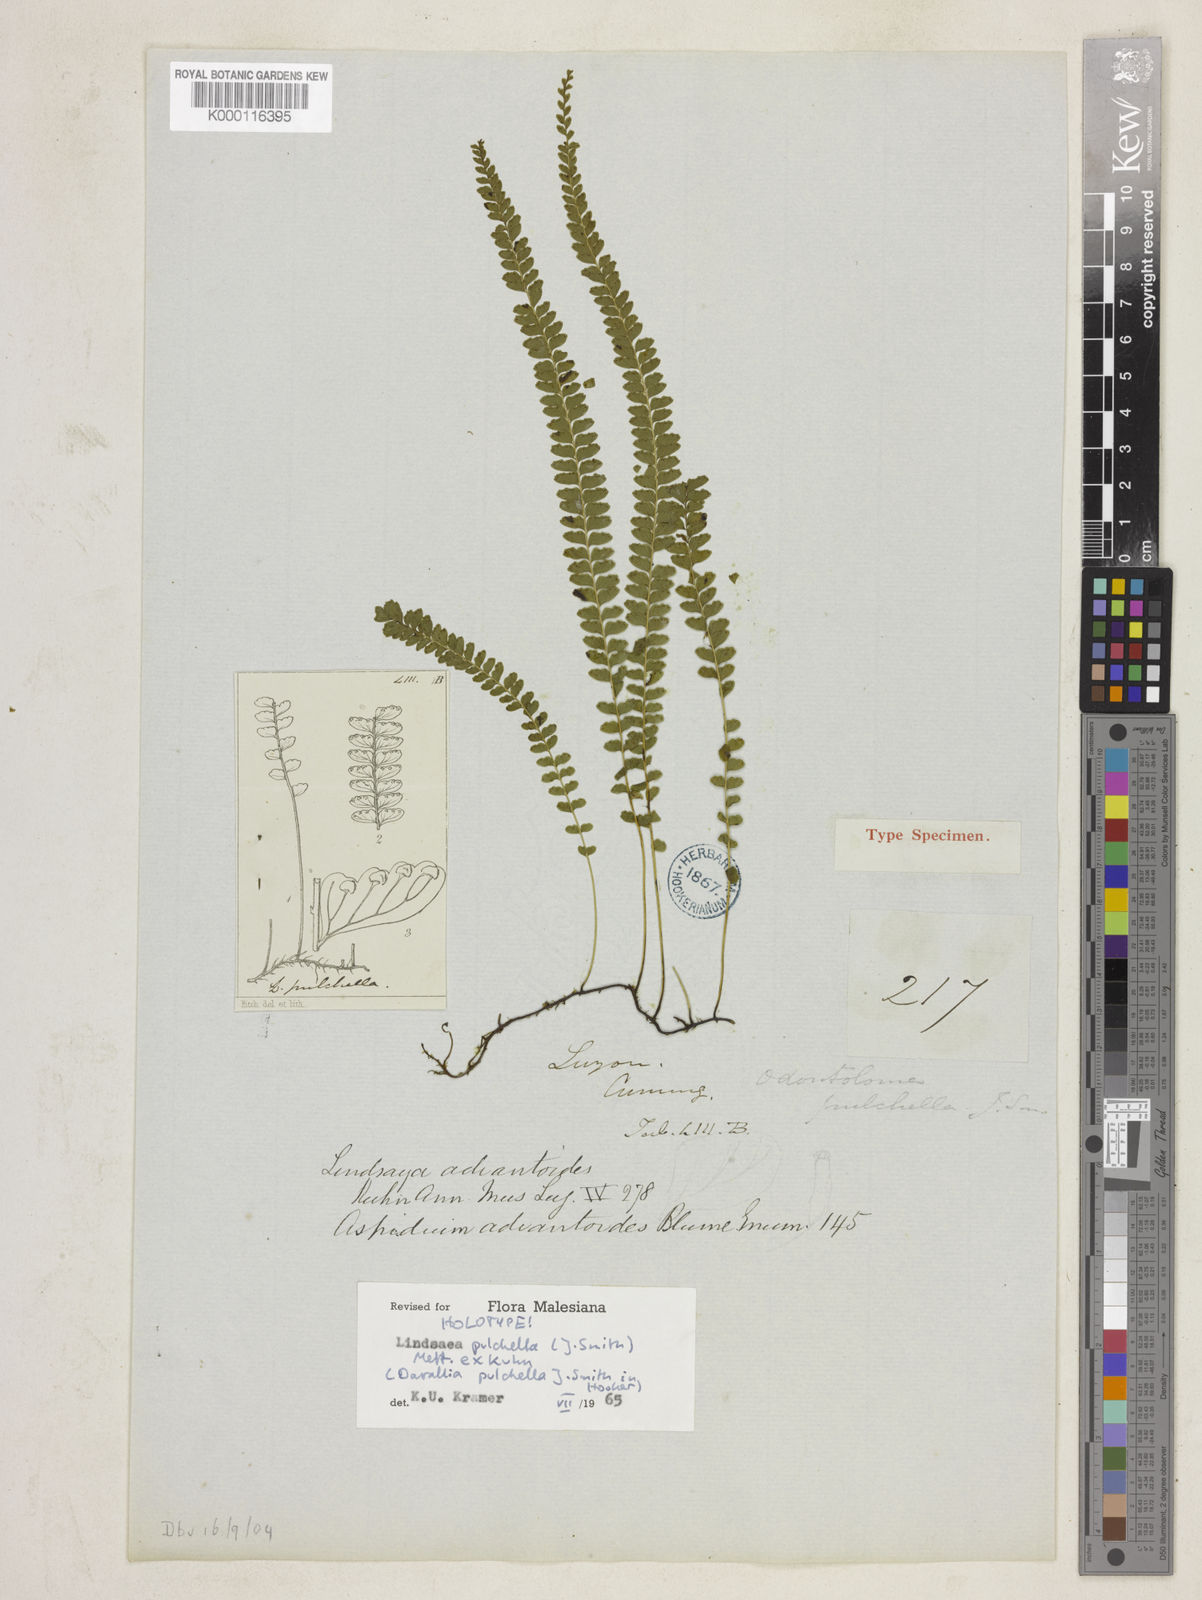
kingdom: Plantae
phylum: Tracheophyta
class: Polypodiopsida
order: Polypodiales
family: Lindsaeaceae
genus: Lindsaea
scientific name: Lindsaea
